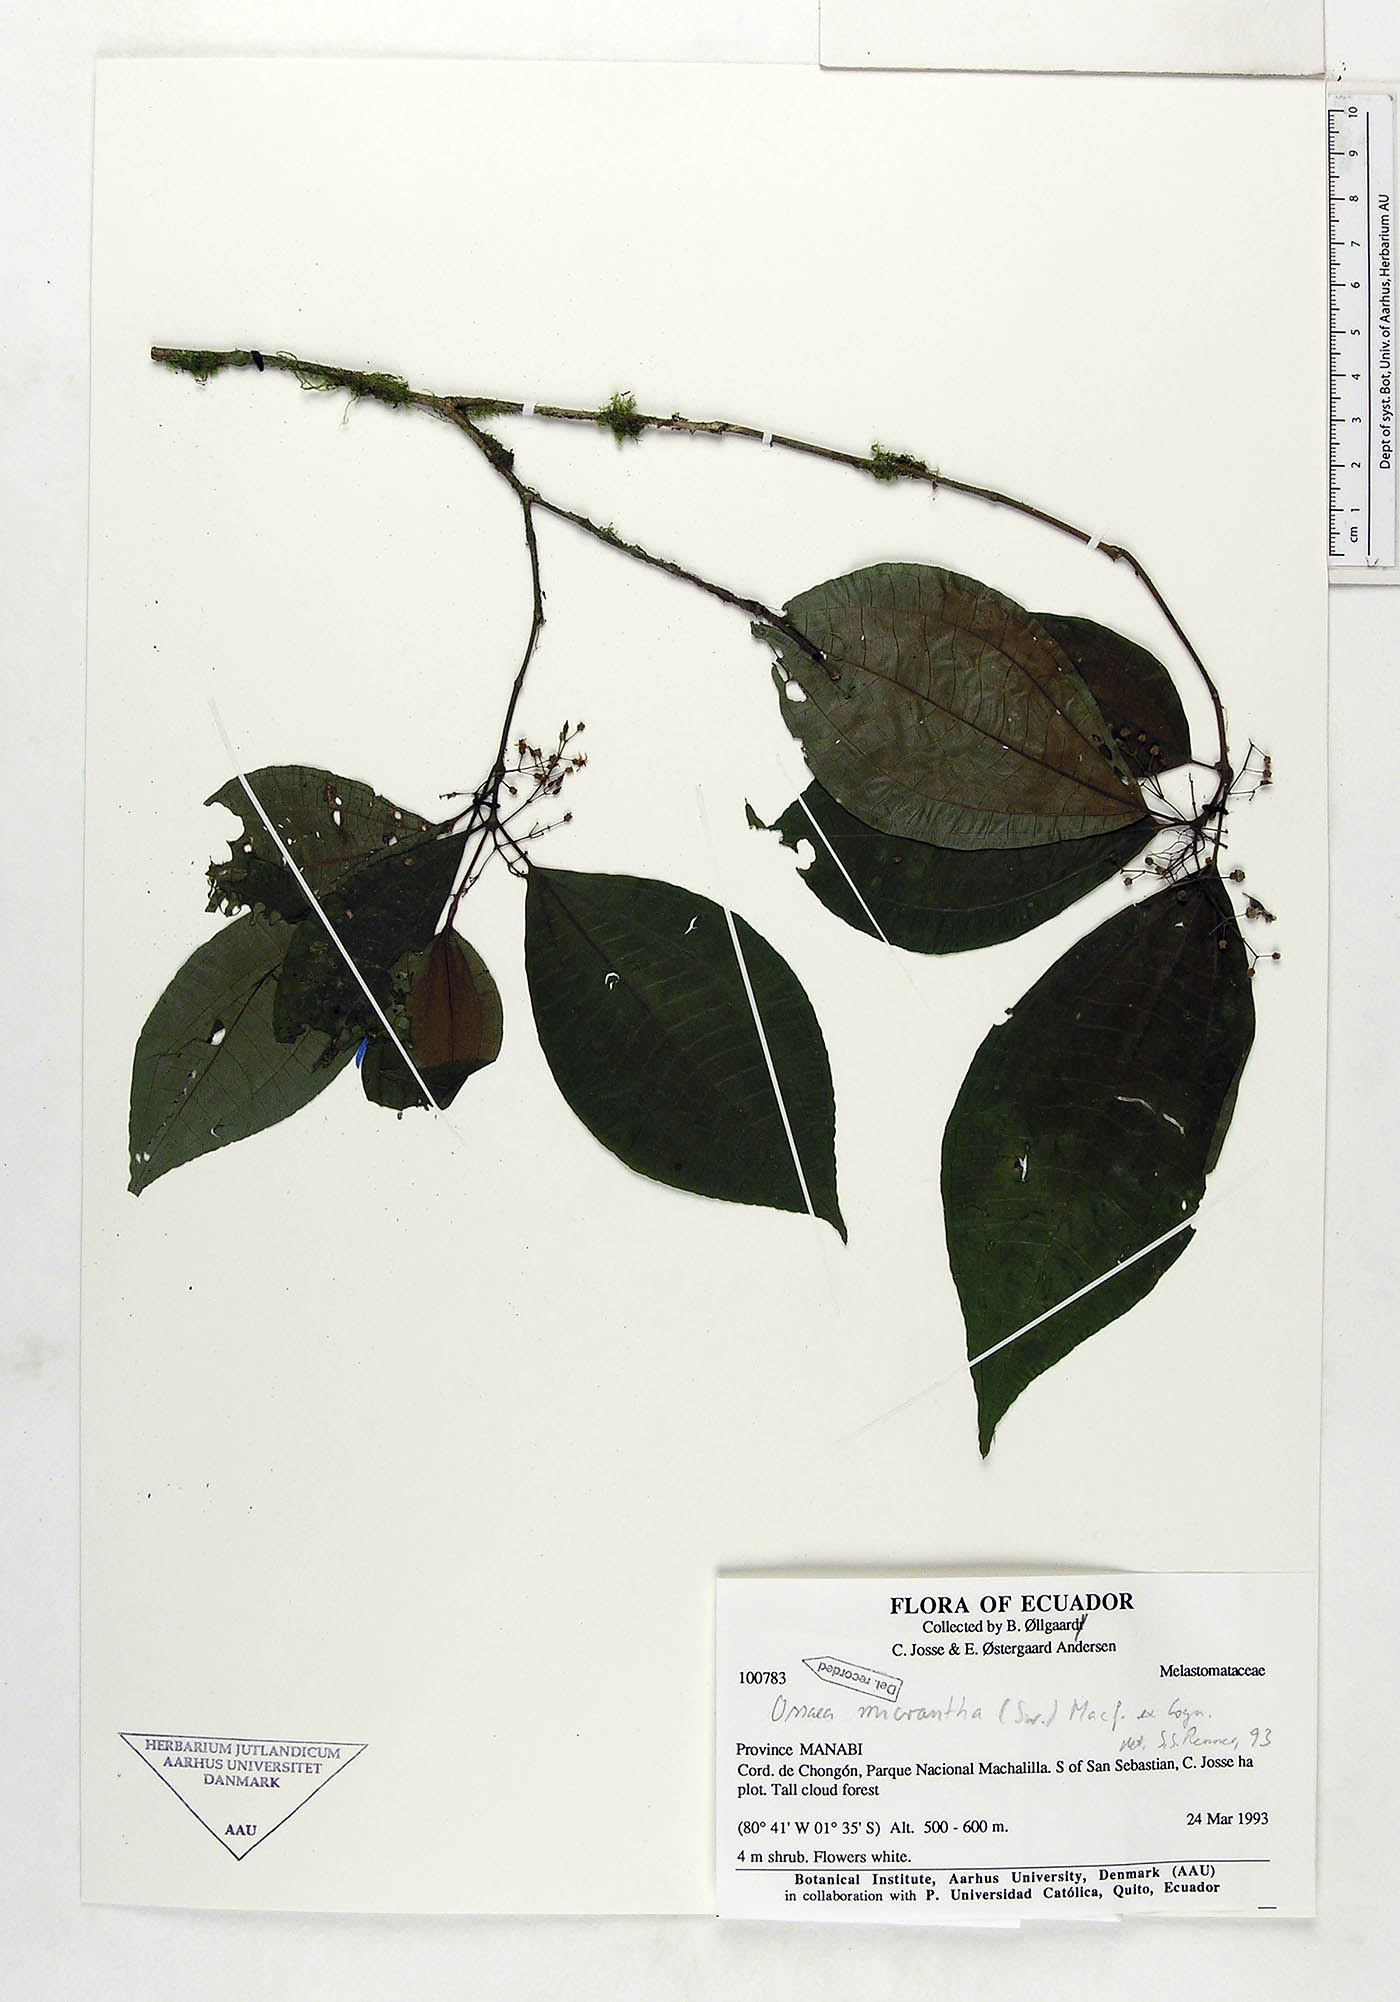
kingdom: Plantae
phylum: Tracheophyta
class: Magnoliopsida
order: Myrtales
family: Melastomataceae
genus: Ossaea
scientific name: Ossaea micrantha
